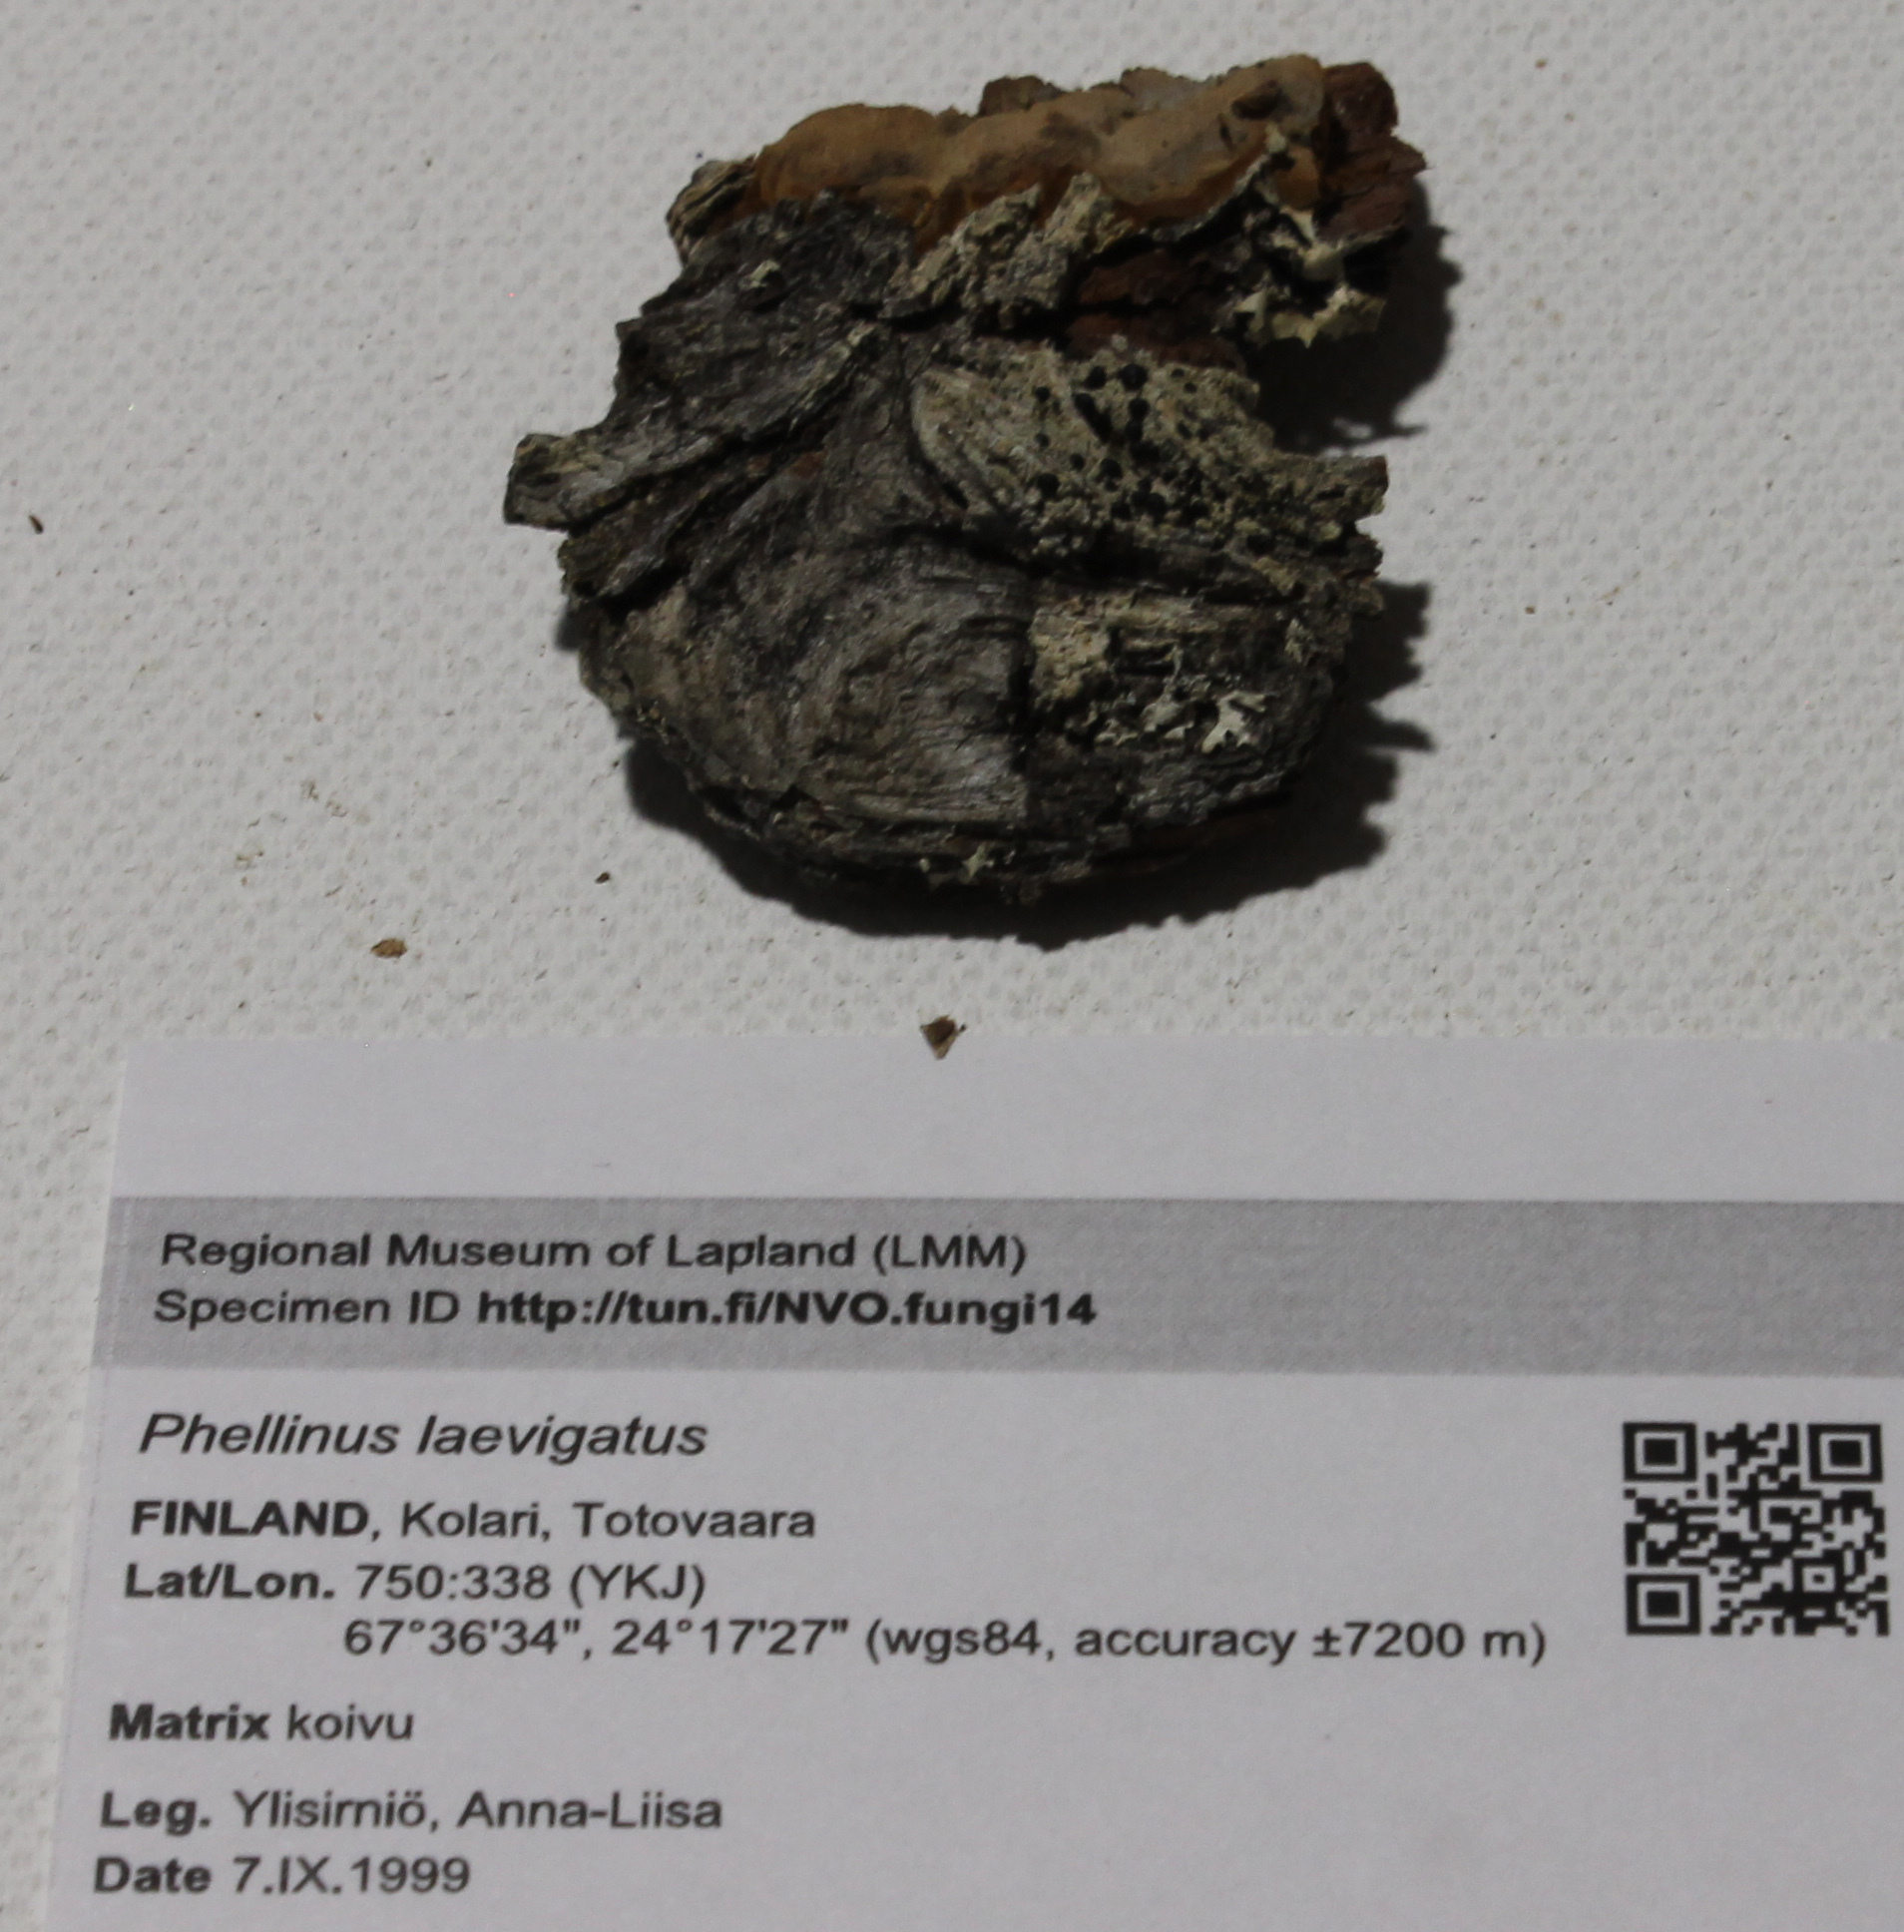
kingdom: Fungi
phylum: Basidiomycota
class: Agaricomycetes
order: Hymenochaetales
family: Hymenochaetaceae
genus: Phellinus
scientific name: Phellinus laevigatus
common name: Smooth bristle bracket
